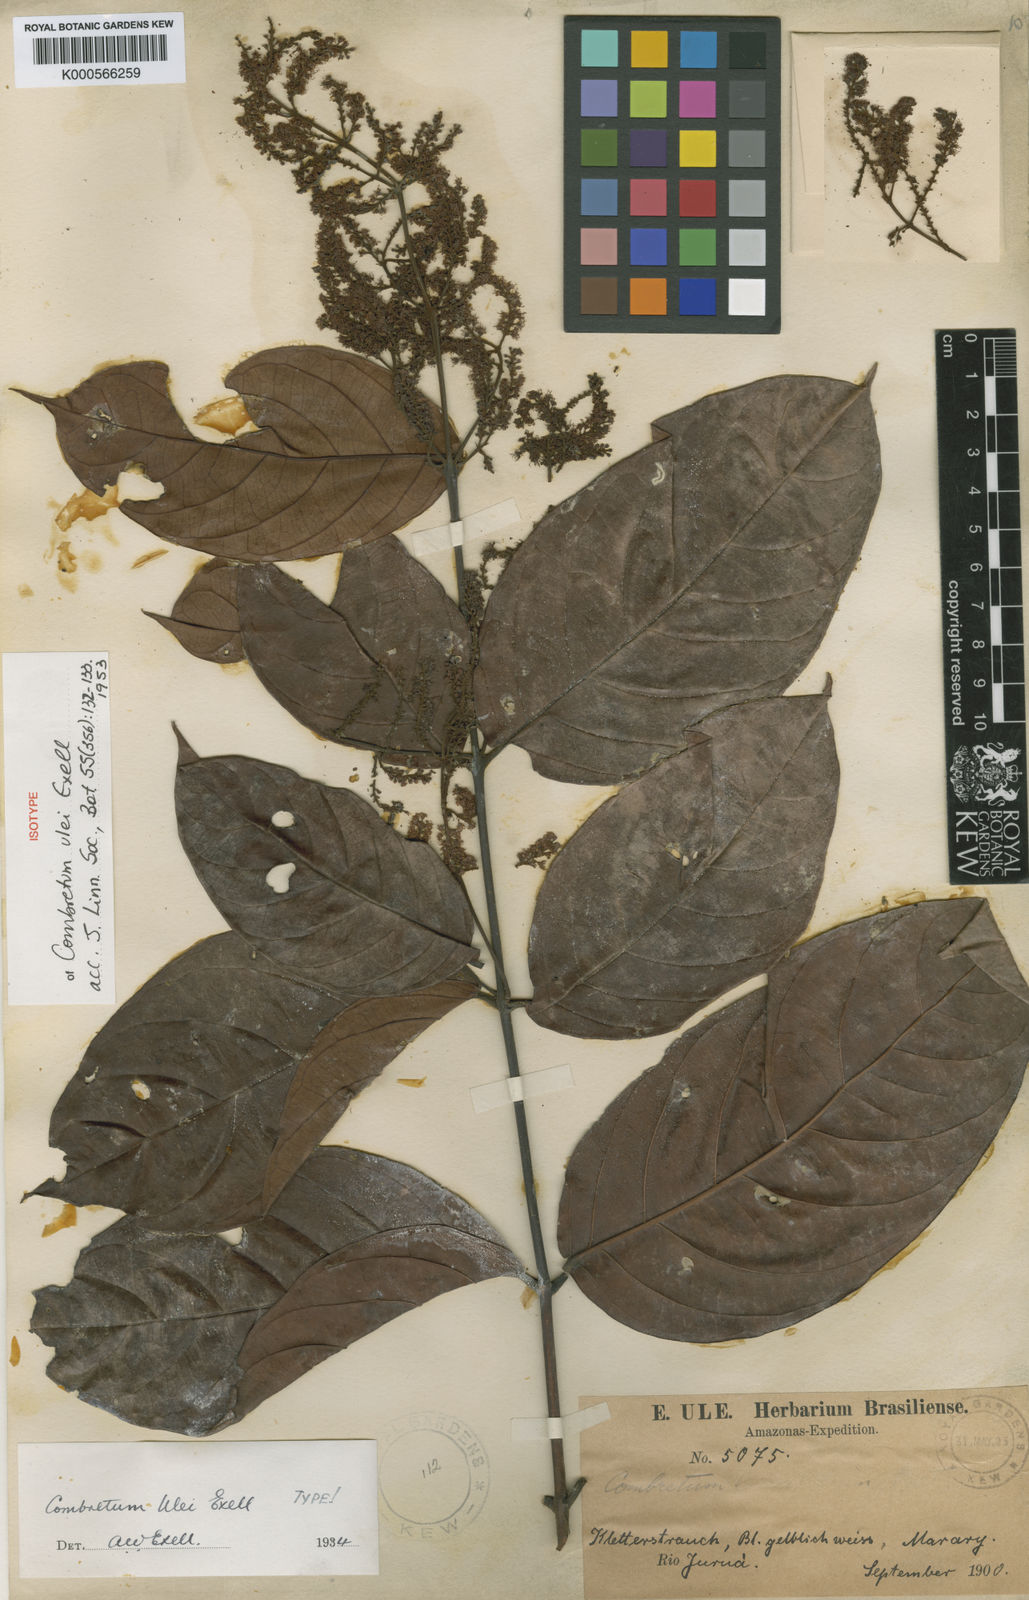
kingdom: Plantae
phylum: Tracheophyta
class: Magnoliopsida
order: Myrtales
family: Combretaceae
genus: Combretum
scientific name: Combretum ulei
